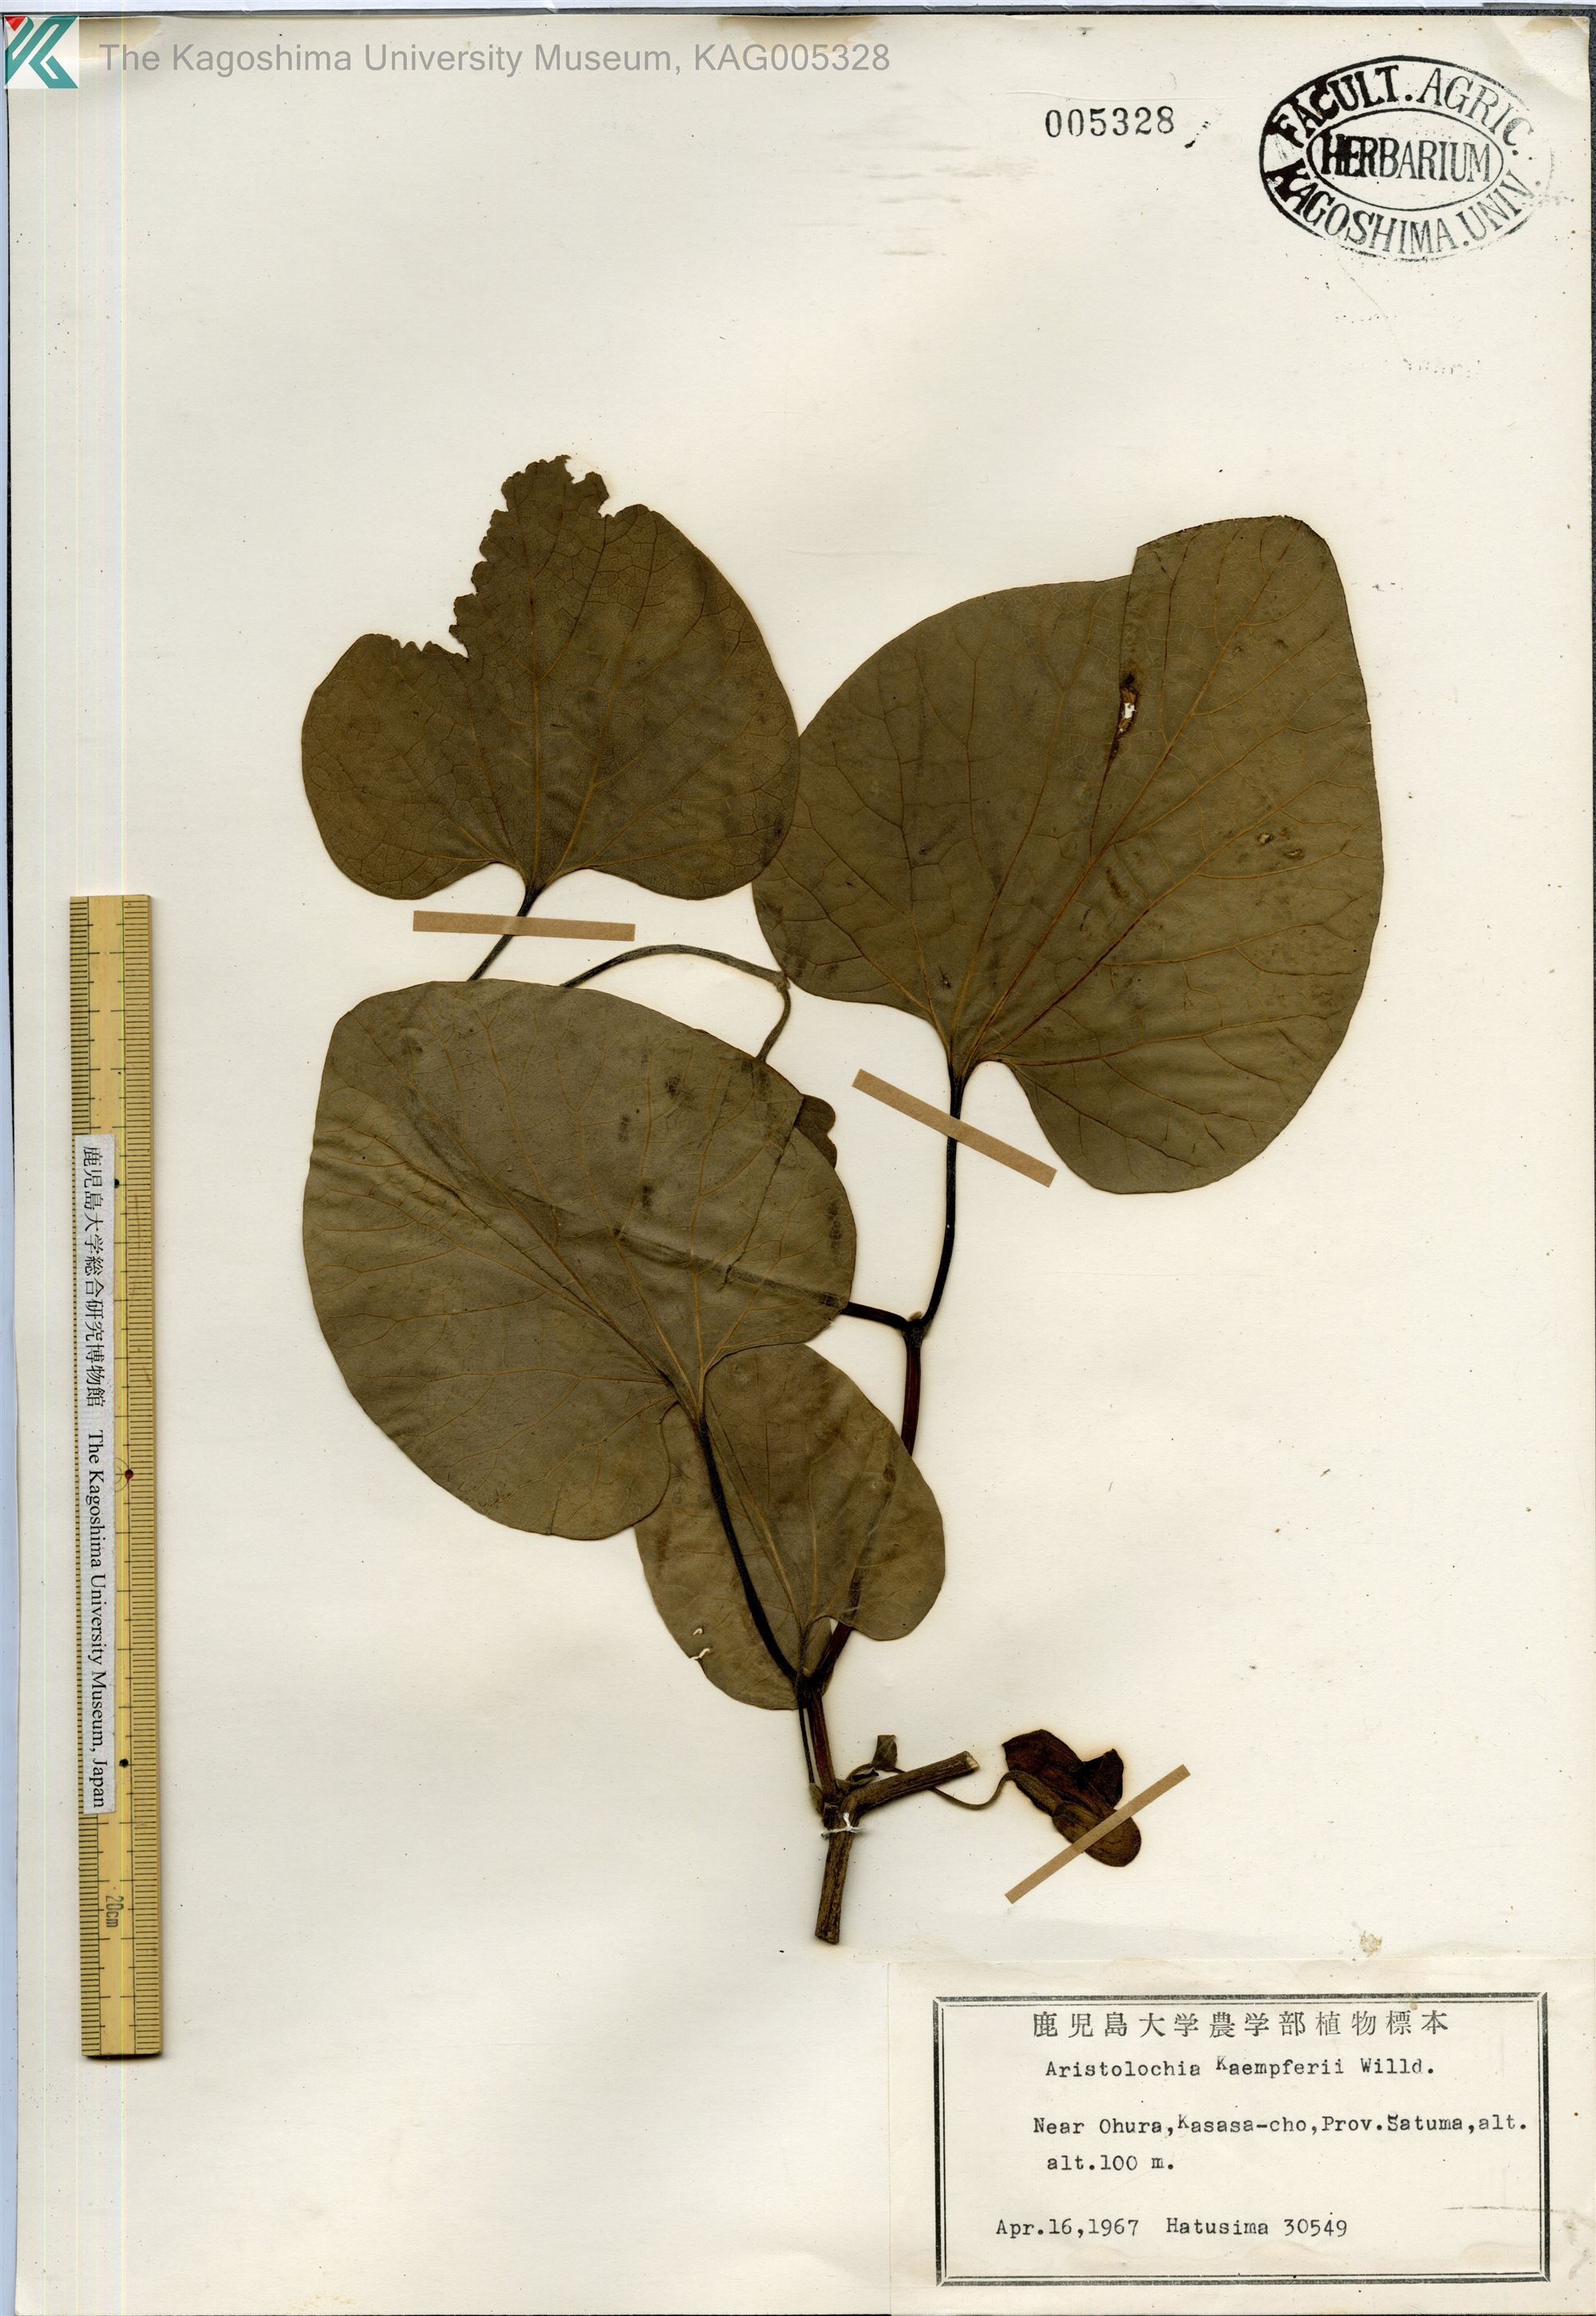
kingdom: Plantae
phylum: Tracheophyta
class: Magnoliopsida
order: Piperales
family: Aristolochiaceae
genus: Isotrema
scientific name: Isotrema kaempferi
